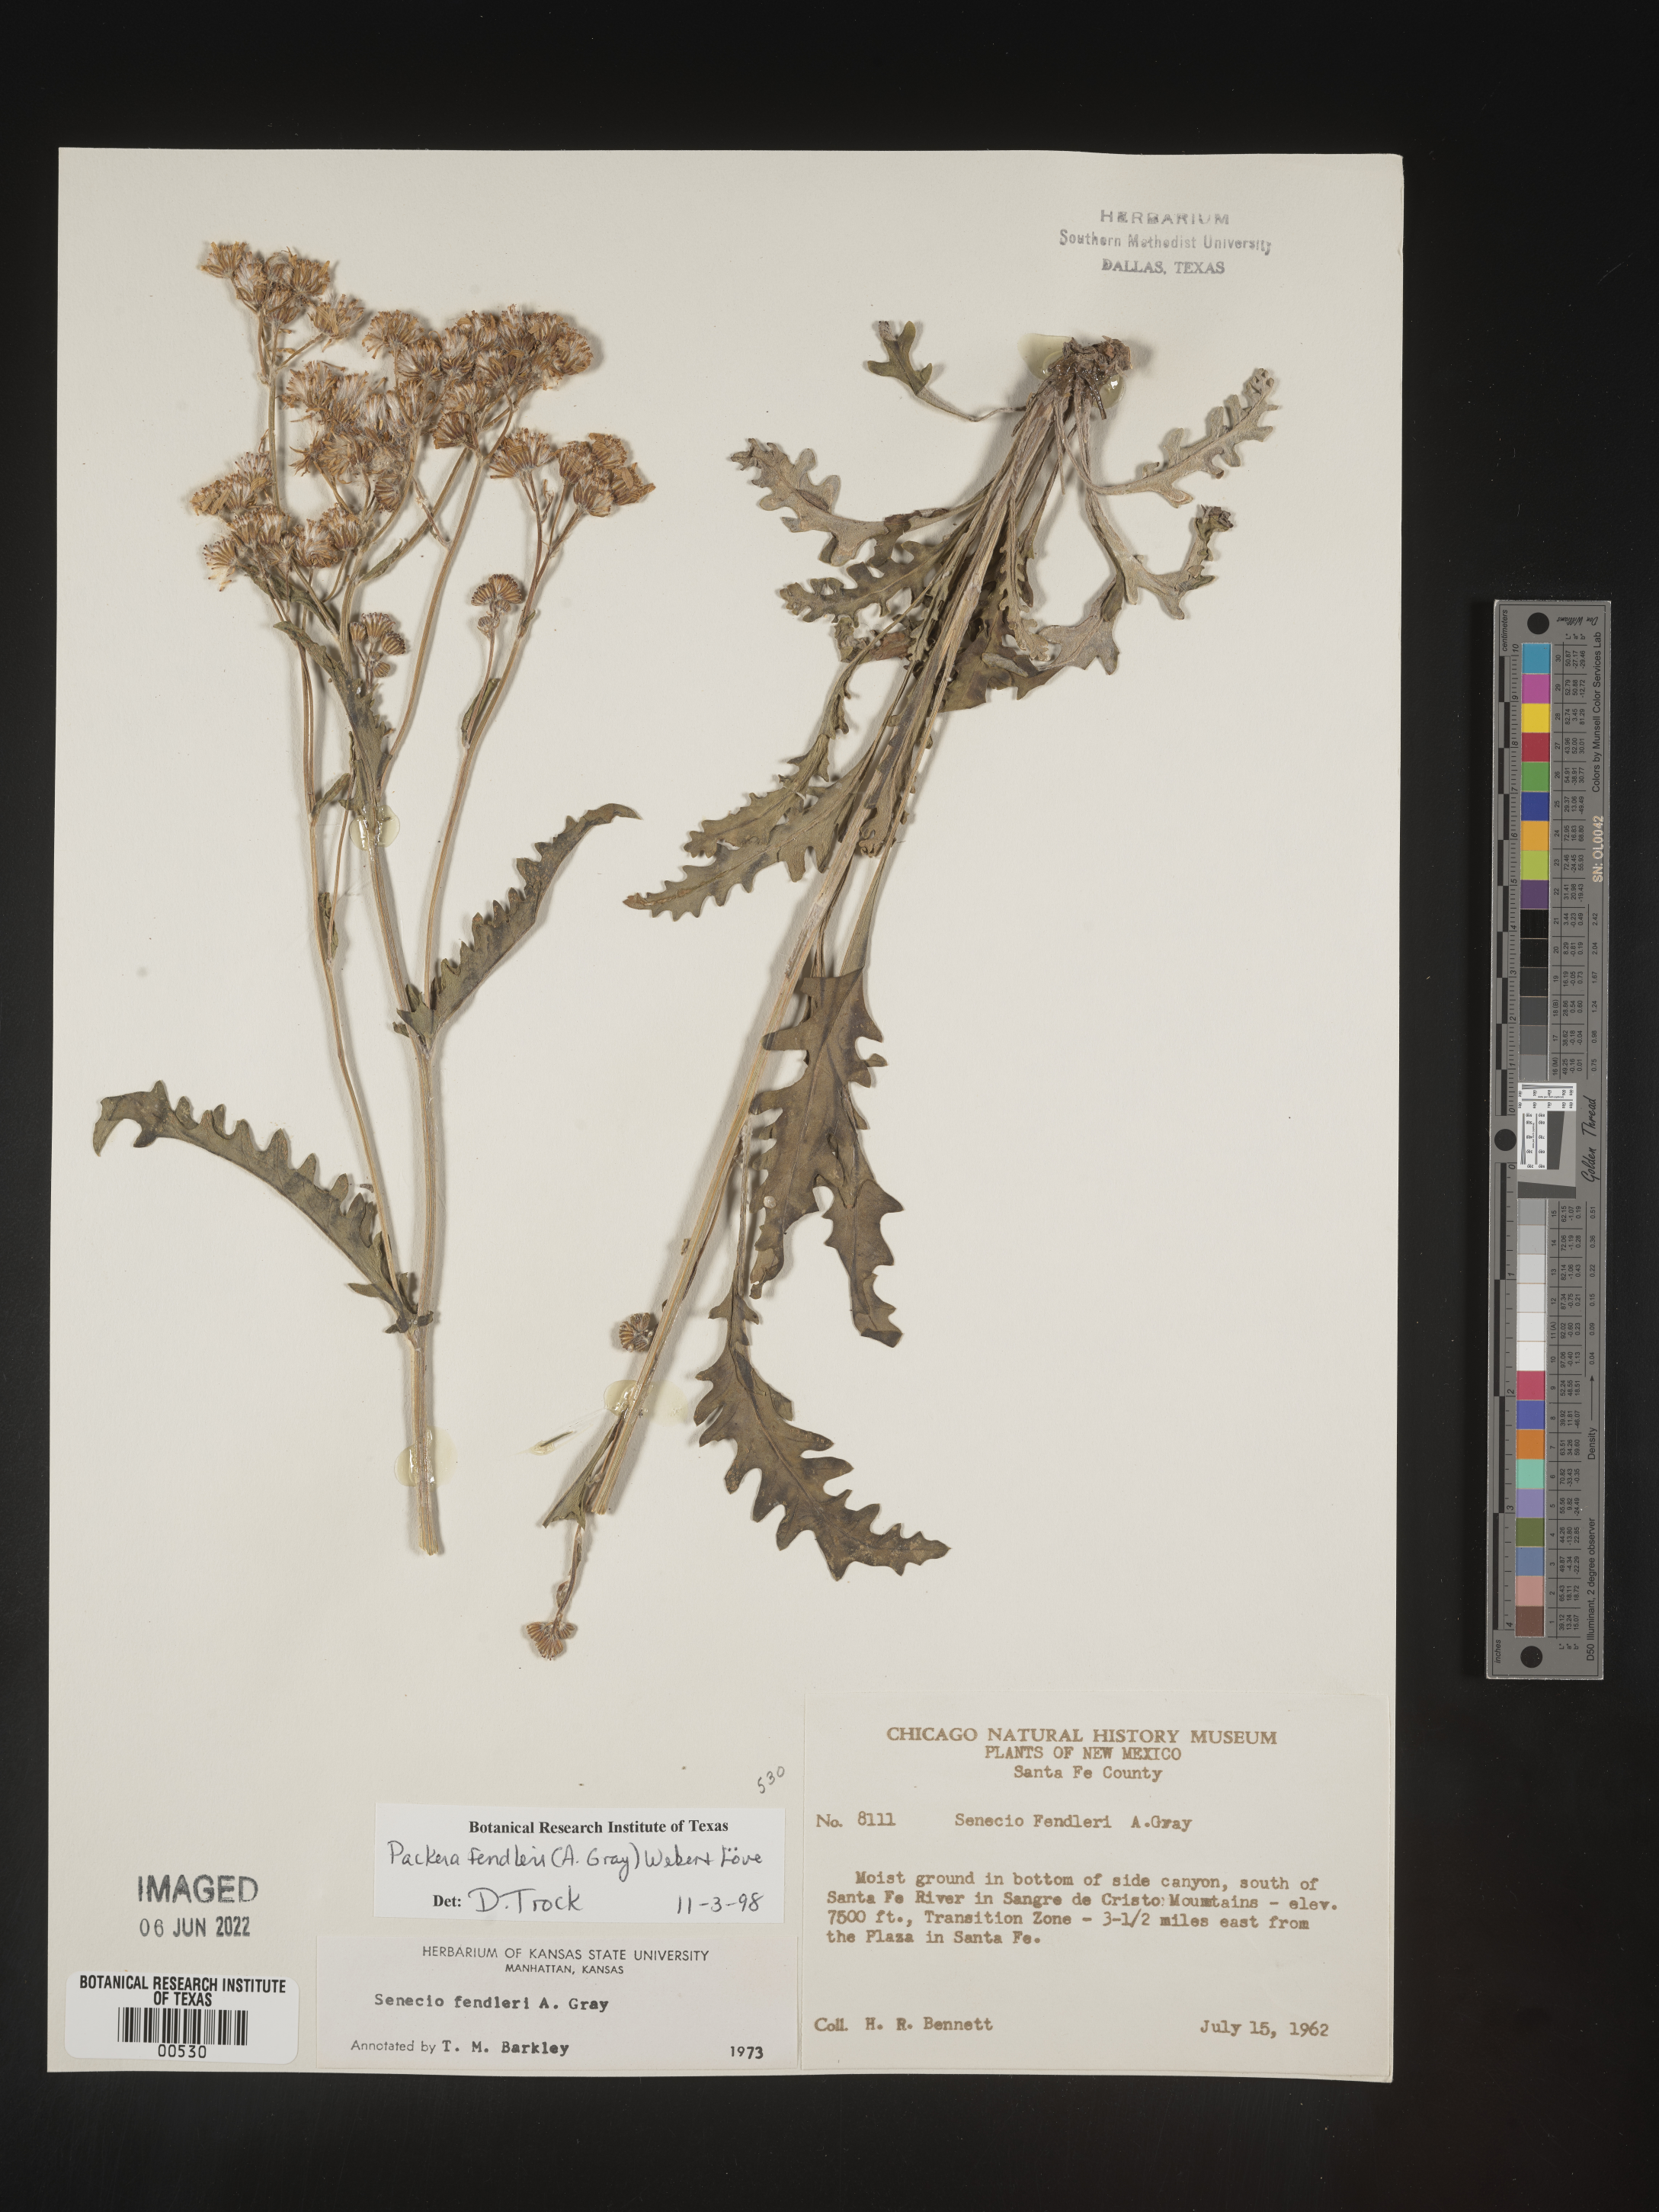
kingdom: Plantae
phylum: Tracheophyta
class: Magnoliopsida
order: Asterales
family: Asteraceae
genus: Packera
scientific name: Packera fendleri
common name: Notch-leaf butterweed
